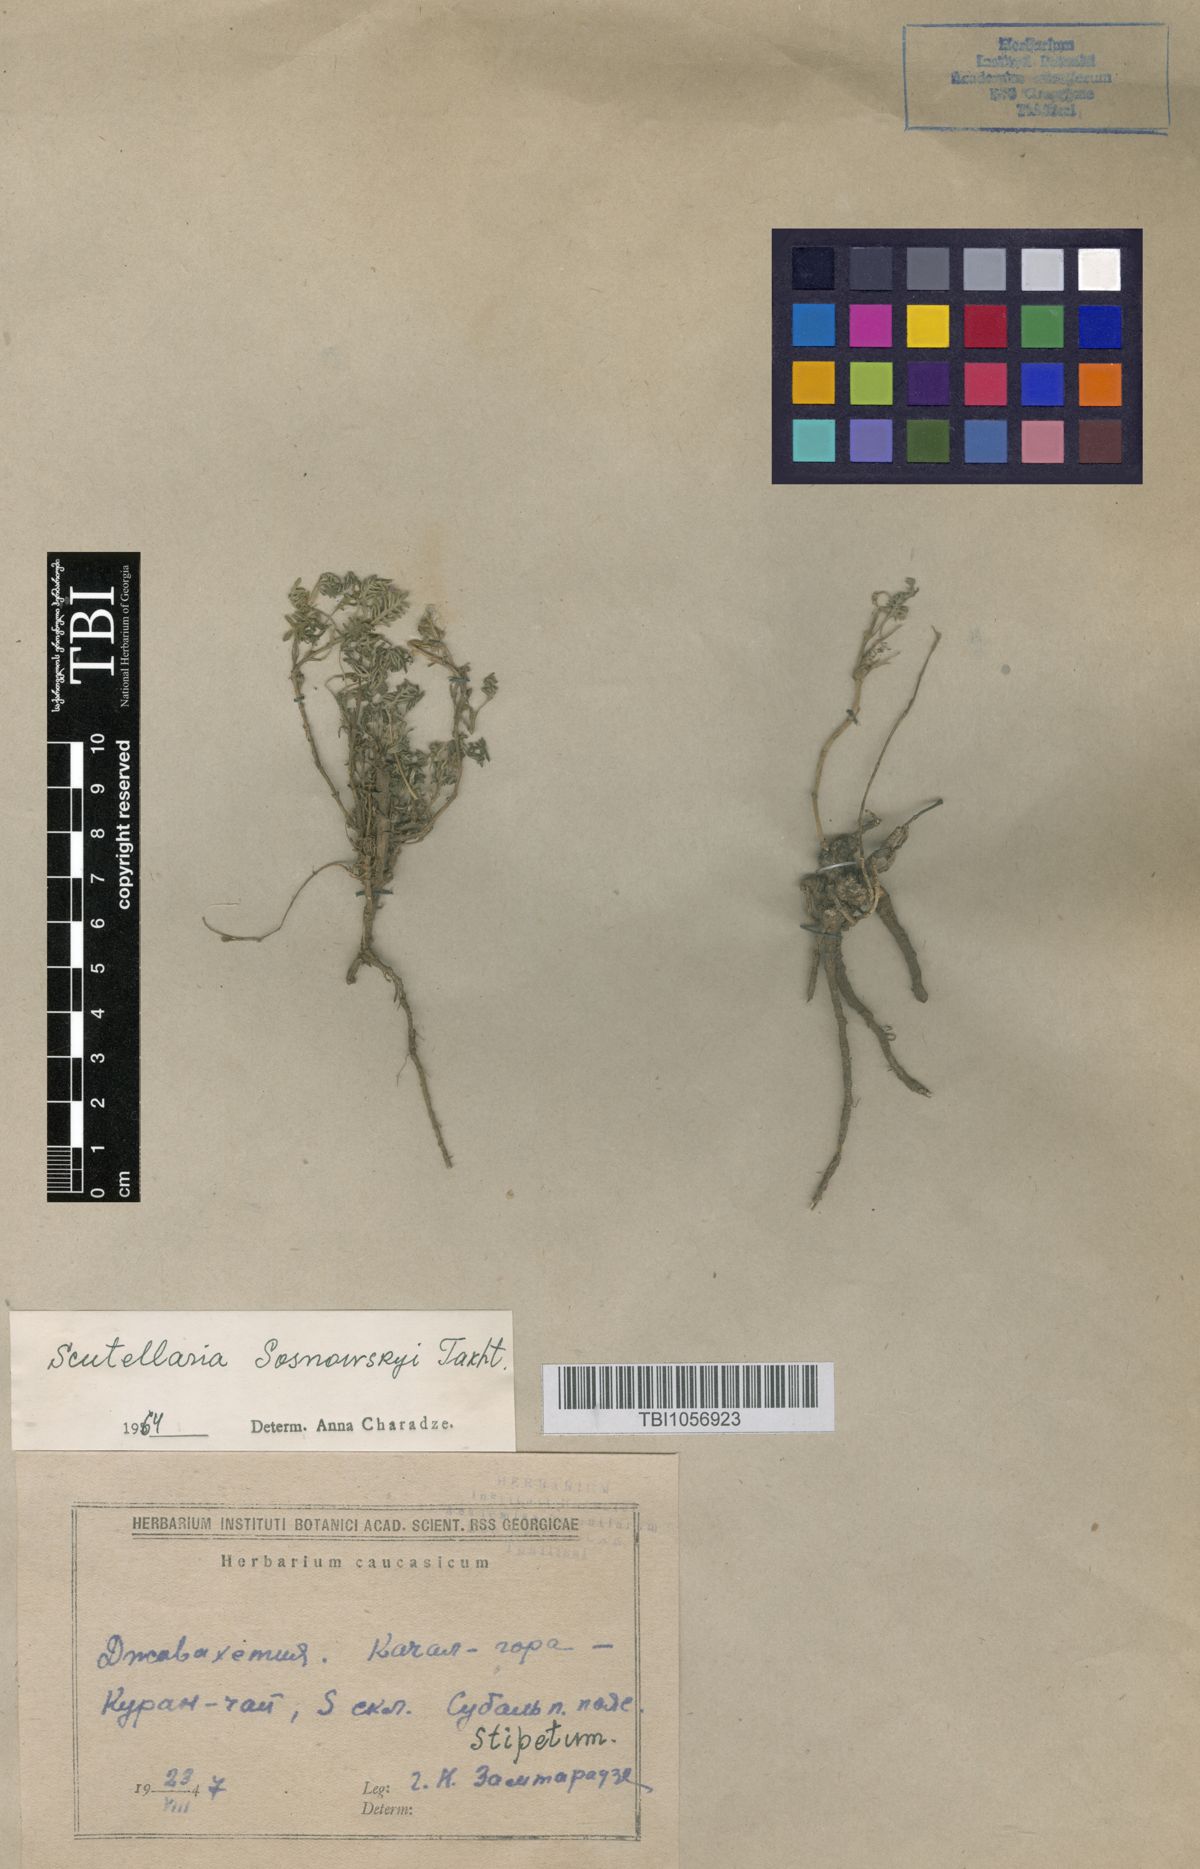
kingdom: Plantae
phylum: Tracheophyta
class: Magnoliopsida
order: Lamiales
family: Lamiaceae
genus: Scutellaria
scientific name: Scutellaria sosnowskyi
